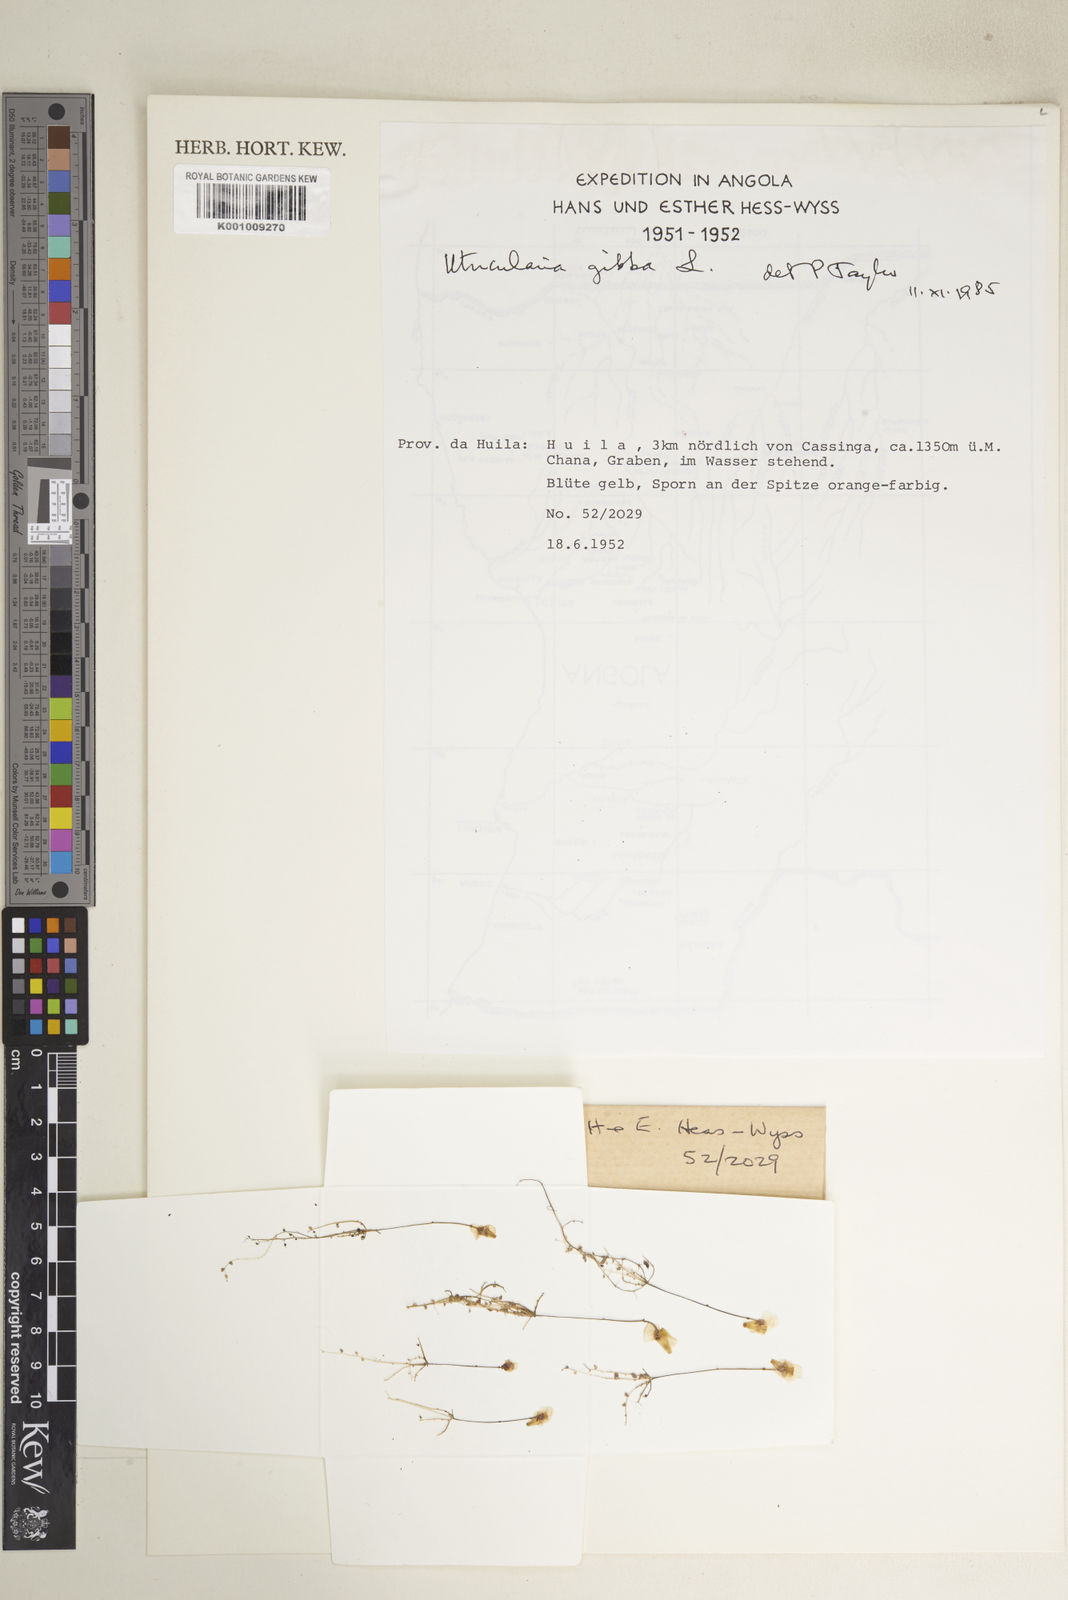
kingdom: Plantae
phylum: Tracheophyta
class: Magnoliopsida
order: Lamiales
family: Lentibulariaceae
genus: Utricularia
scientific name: Utricularia gibba
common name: Humped bladderwort
